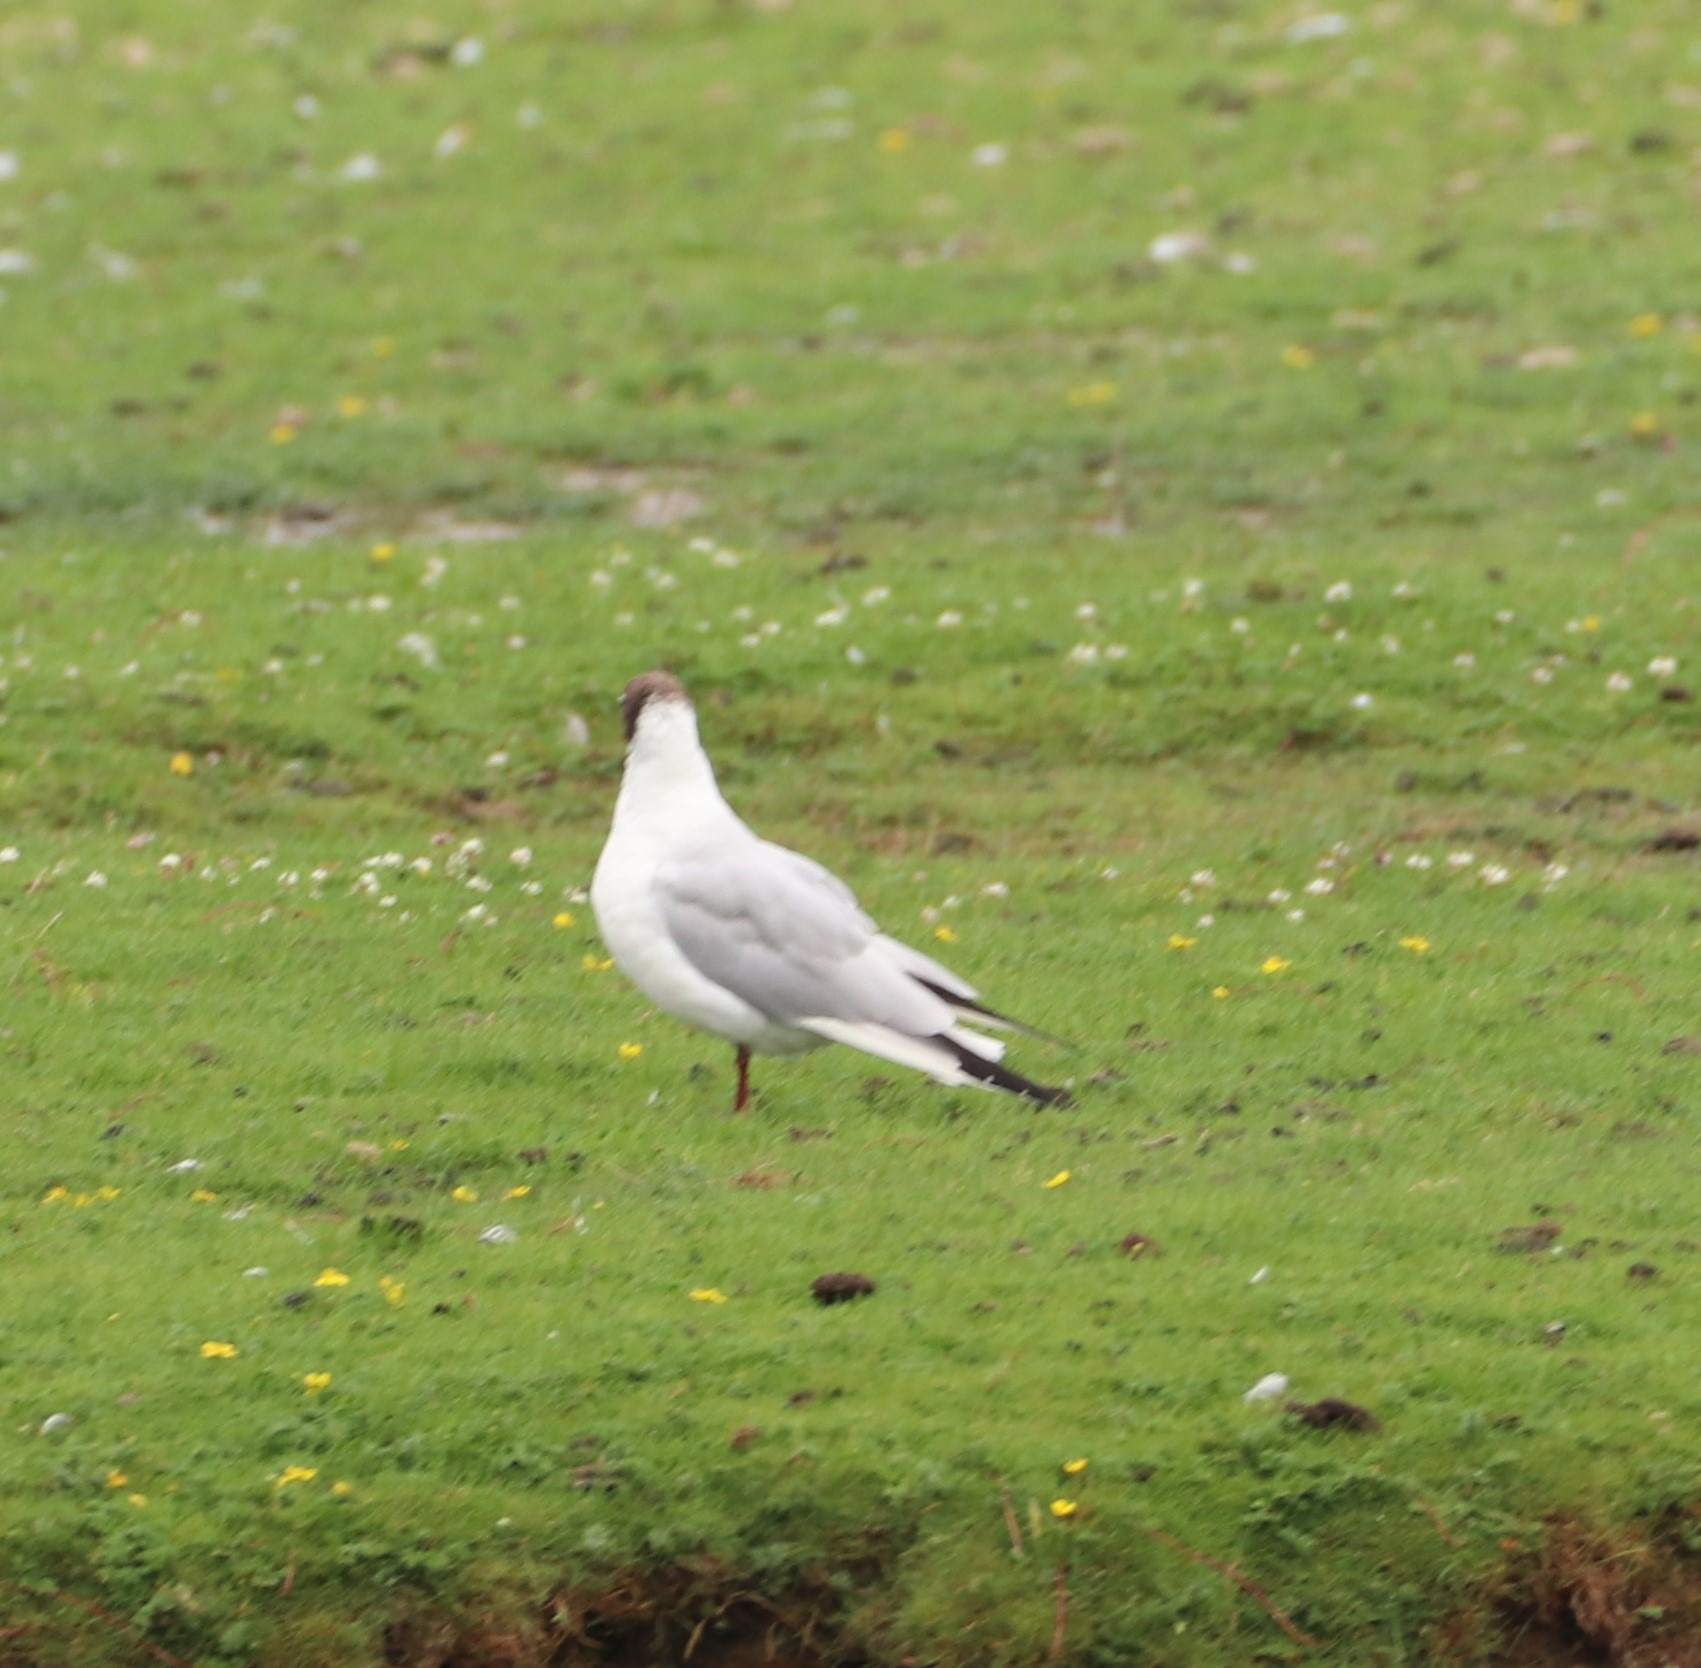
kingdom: Animalia
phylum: Chordata
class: Aves
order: Charadriiformes
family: Laridae
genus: Chroicocephalus
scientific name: Chroicocephalus ridibundus
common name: Hættemåge
